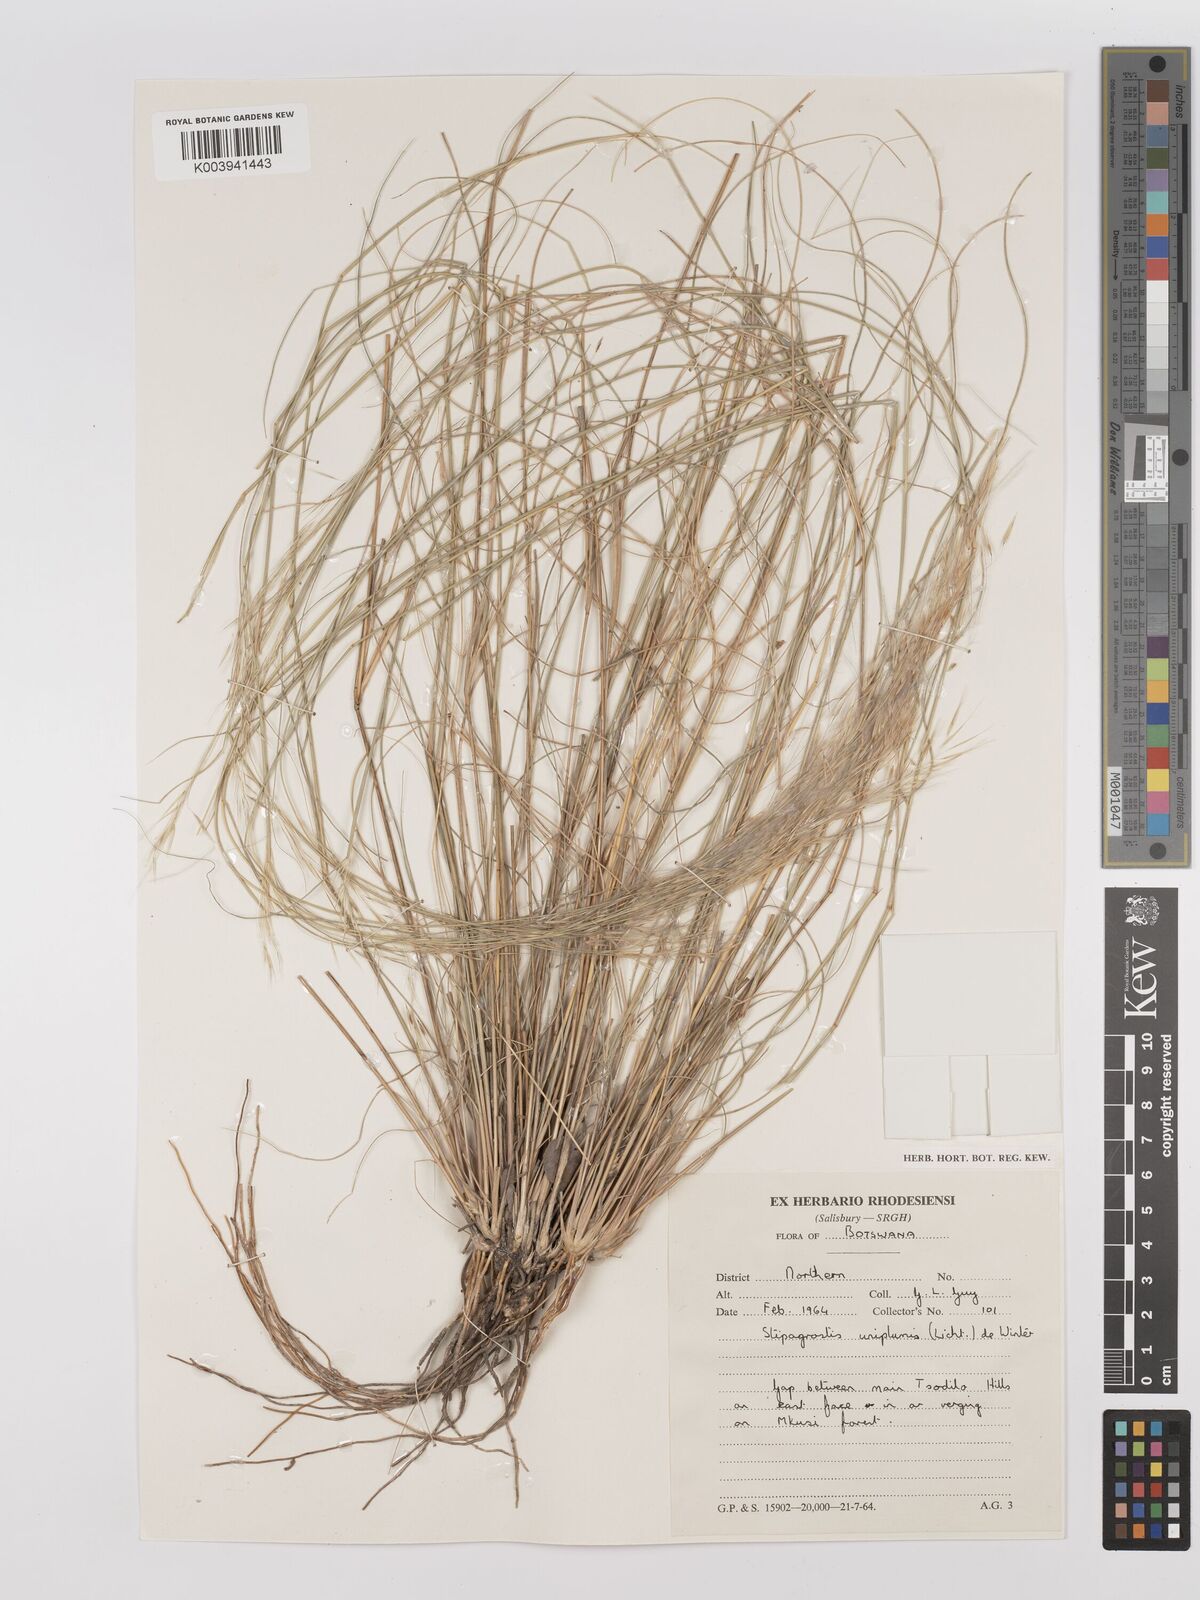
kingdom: Plantae
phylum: Tracheophyta
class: Liliopsida
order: Poales
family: Poaceae
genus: Stipagrostis
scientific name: Stipagrostis uniplumis
